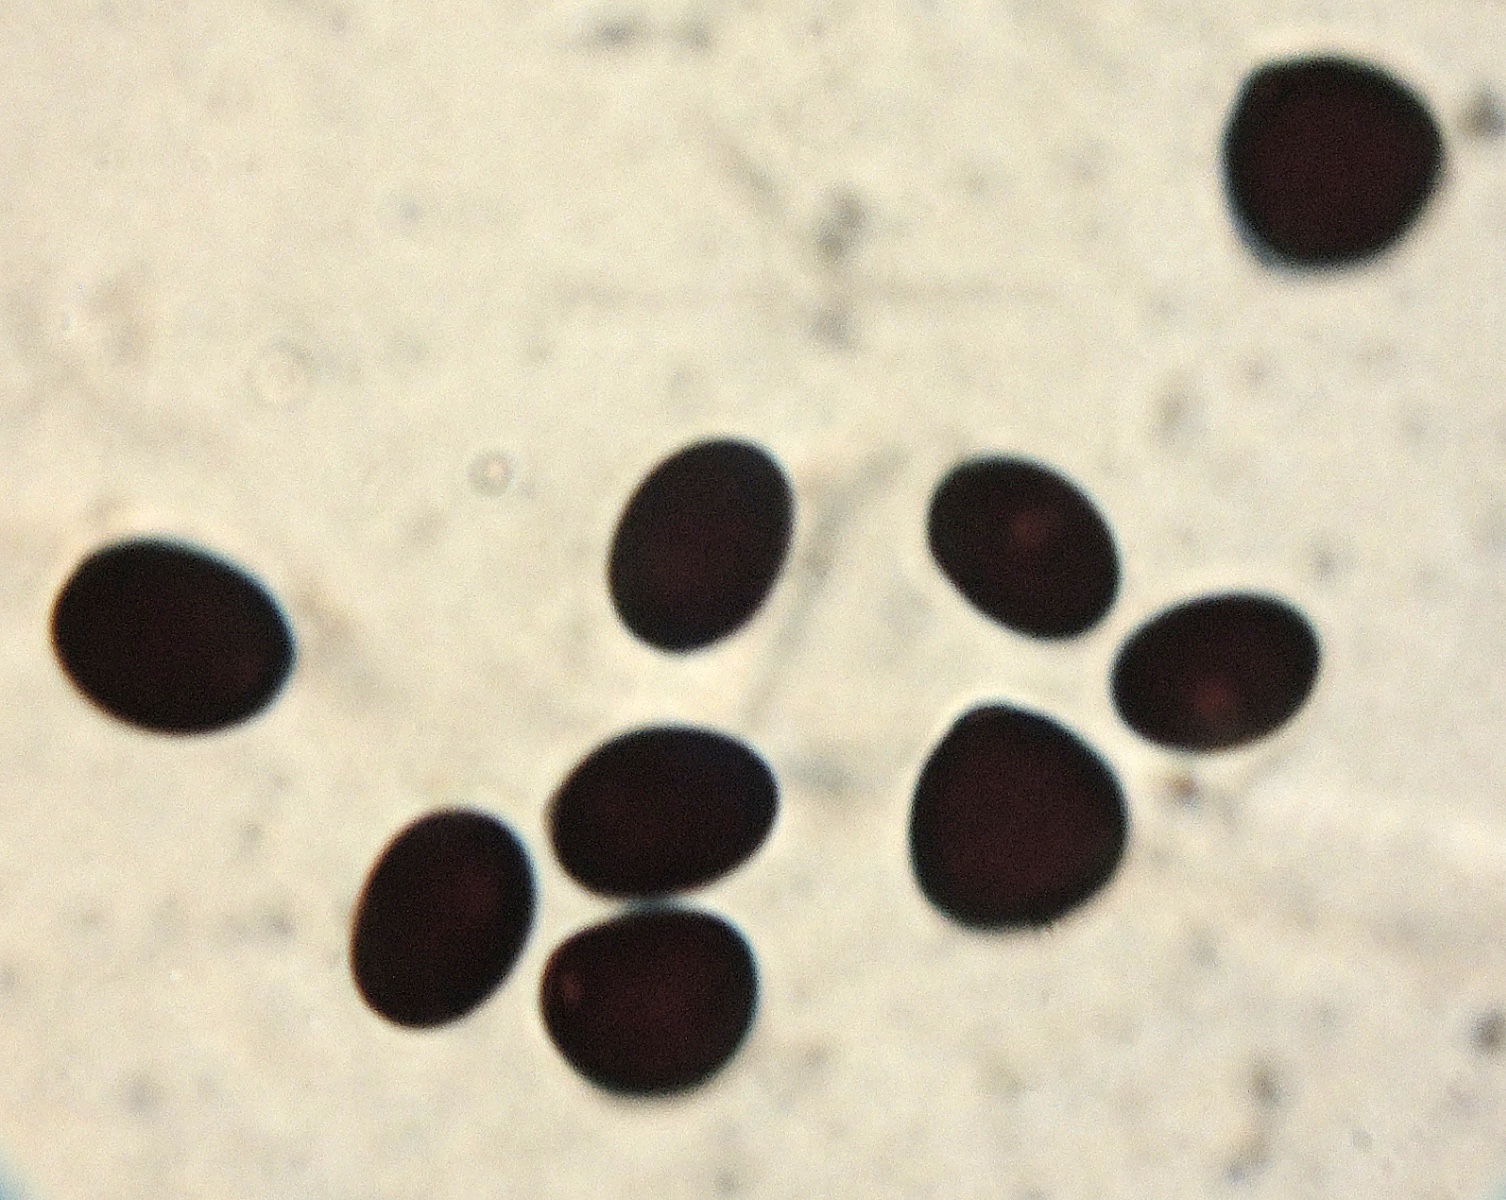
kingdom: Fungi
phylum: Basidiomycota
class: Agaricomycetes
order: Agaricales
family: Psathyrellaceae
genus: Parasola
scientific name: Parasola cuniculorum
